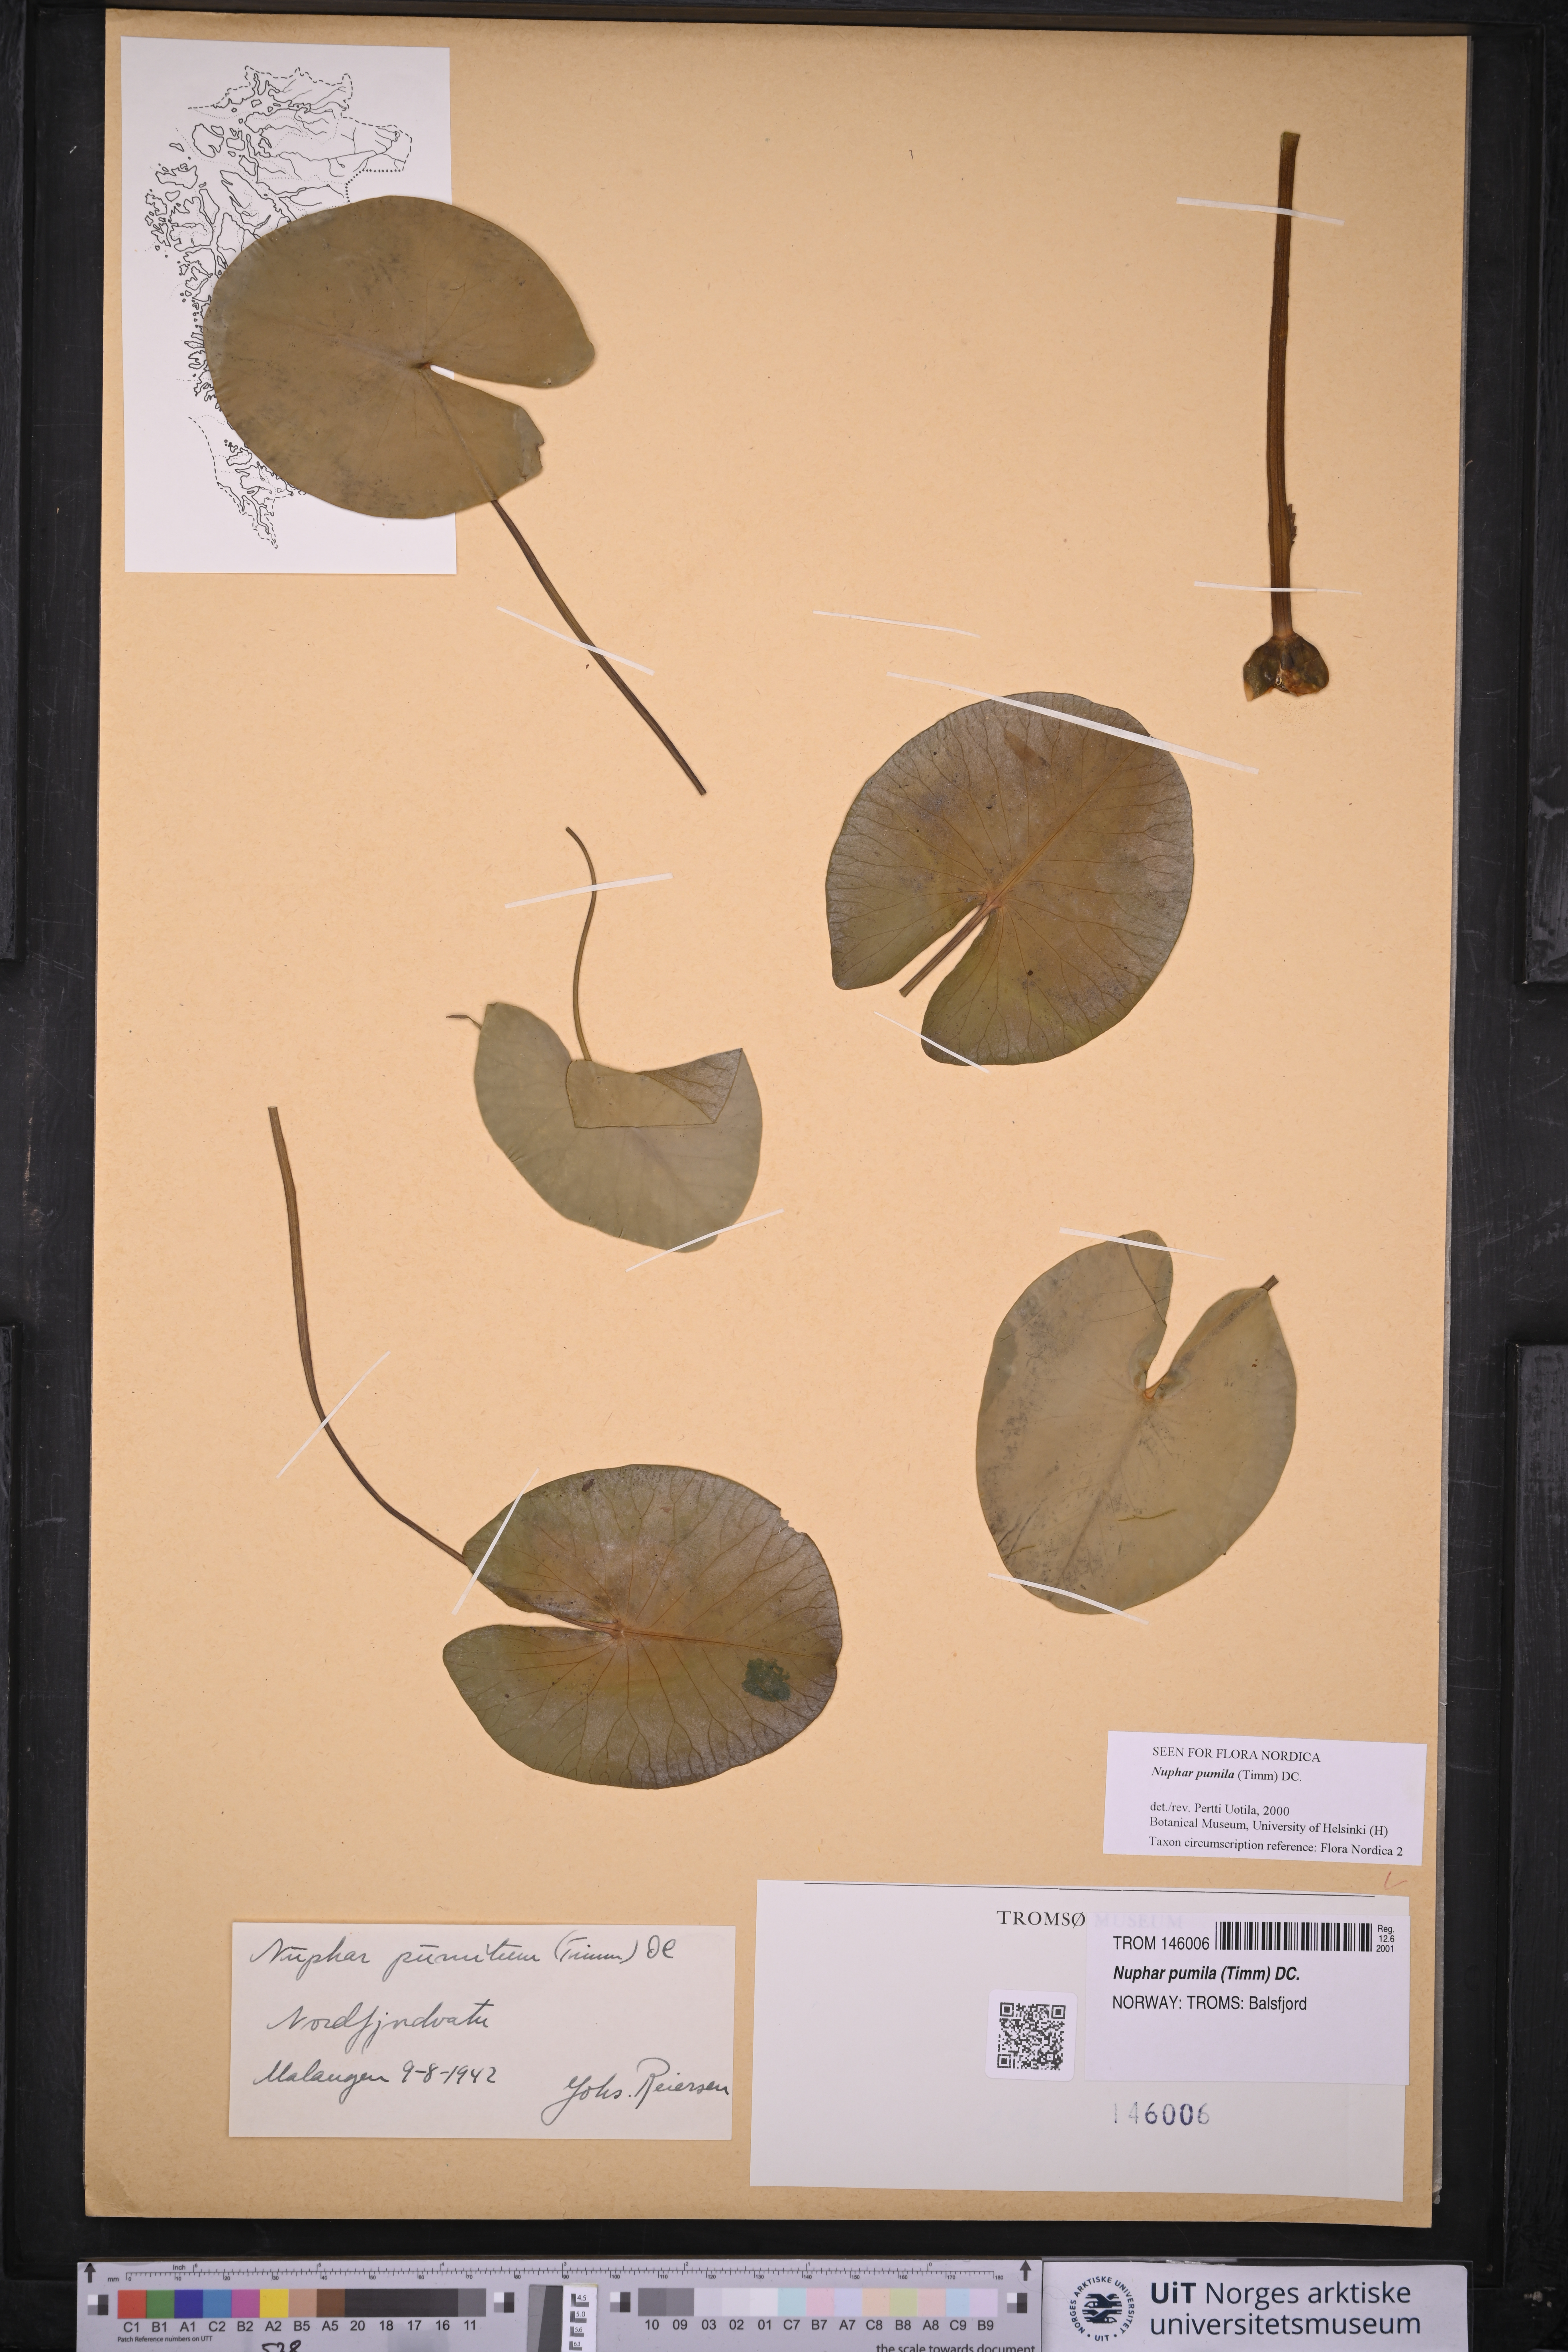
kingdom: Plantae
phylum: Tracheophyta
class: Magnoliopsida
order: Nymphaeales
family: Nymphaeaceae
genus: Nuphar
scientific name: Nuphar pumila
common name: Least water-lily
